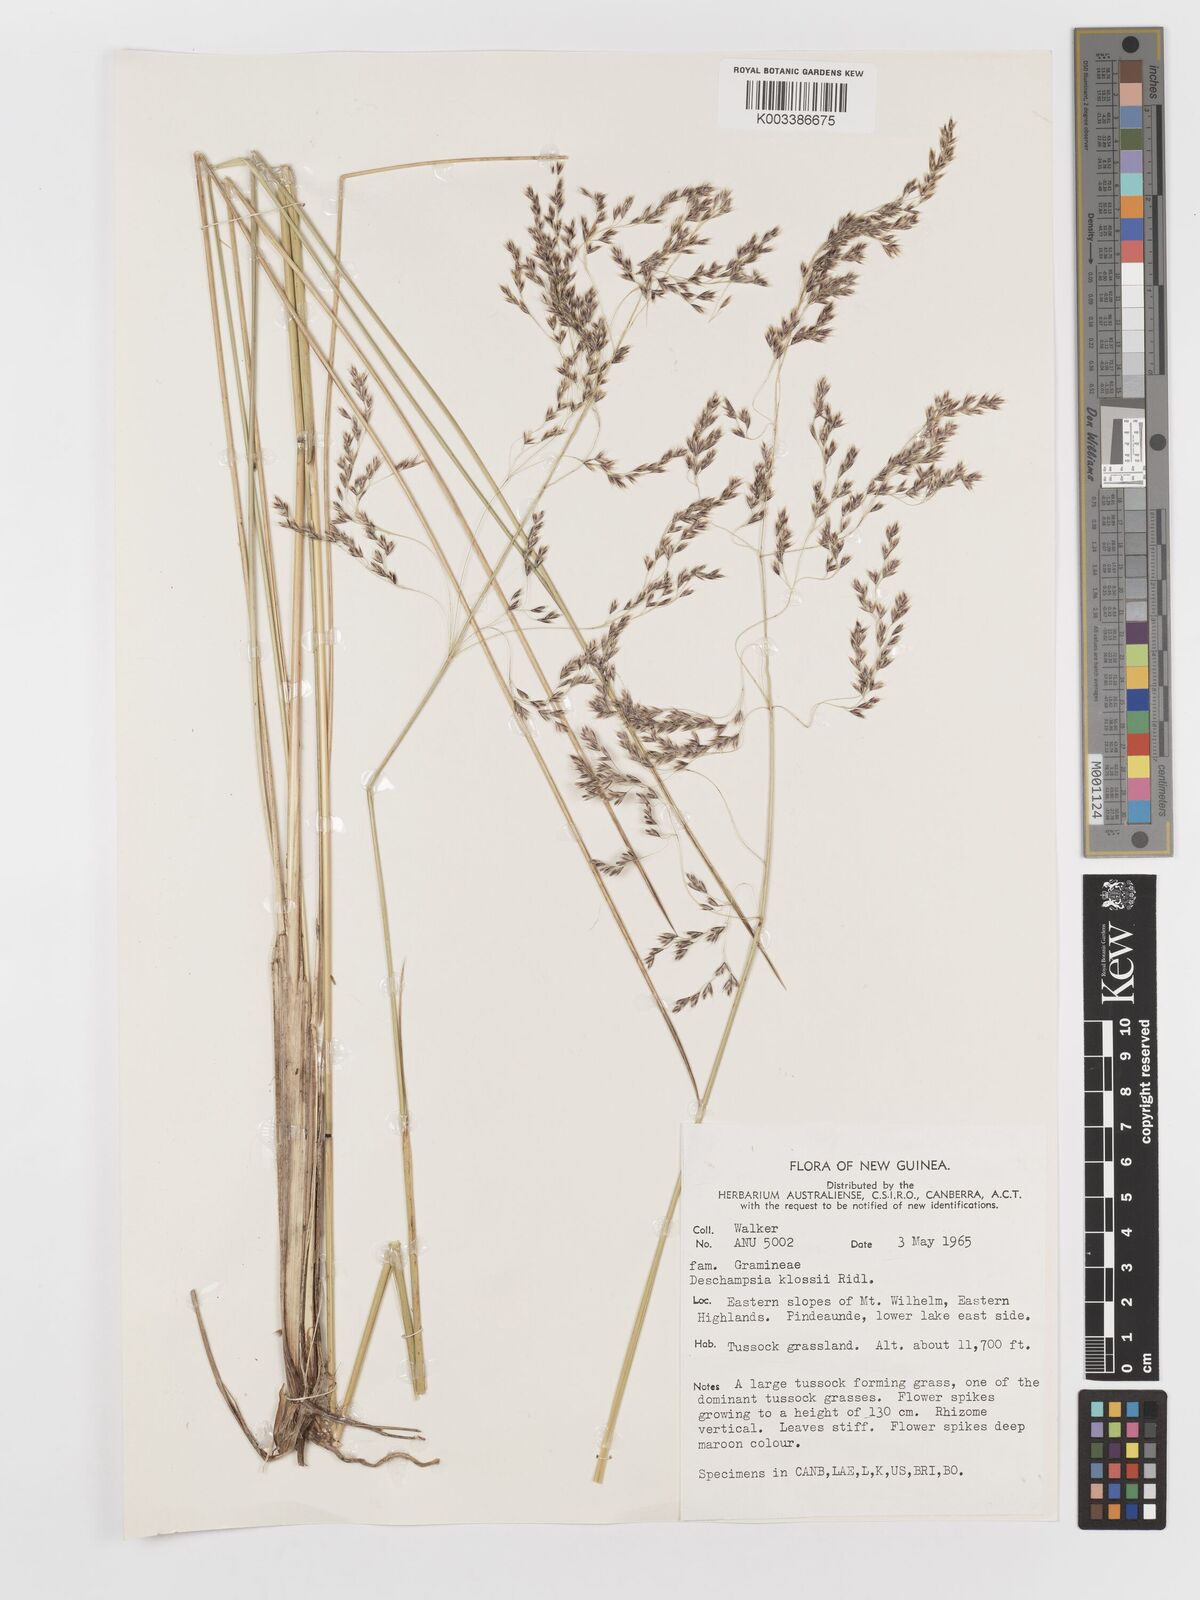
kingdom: Plantae
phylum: Tracheophyta
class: Liliopsida
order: Poales
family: Poaceae
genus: Deschampsia
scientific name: Deschampsia klossii
